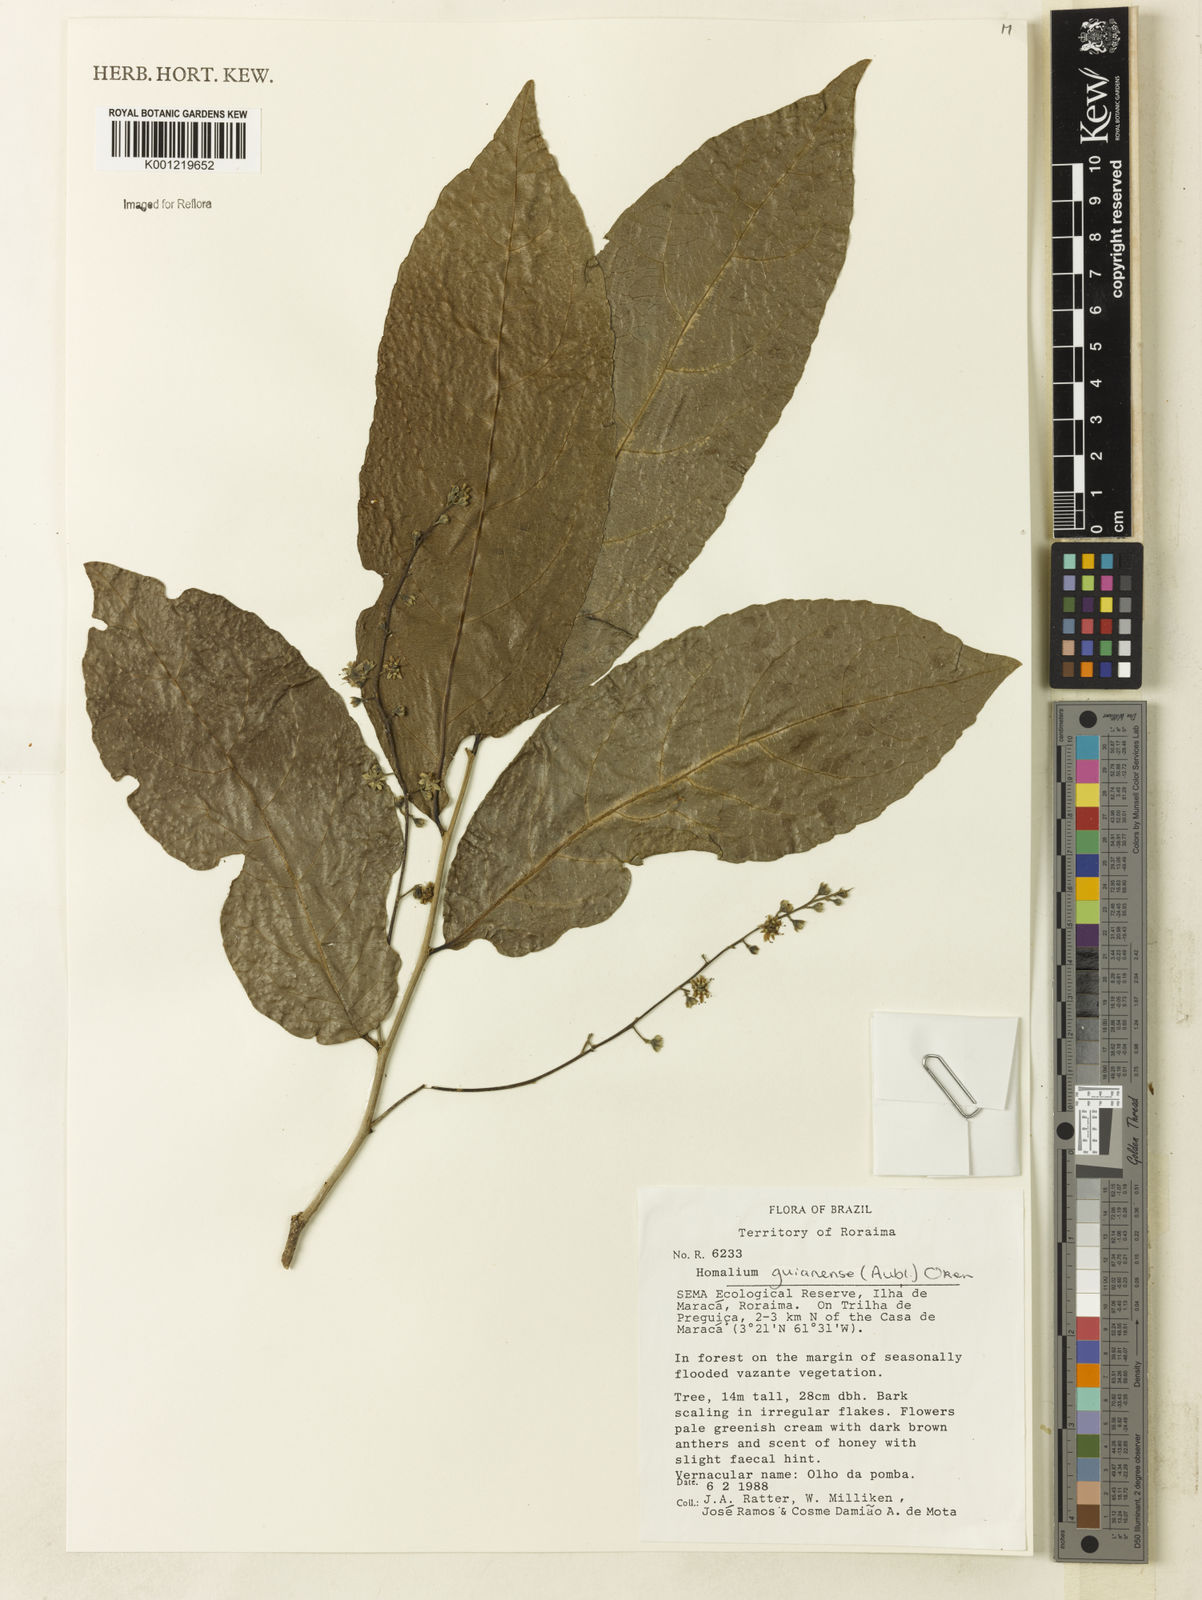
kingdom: Plantae
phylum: Tracheophyta
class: Magnoliopsida
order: Malpighiales
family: Salicaceae
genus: Homalium
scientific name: Homalium guianense
